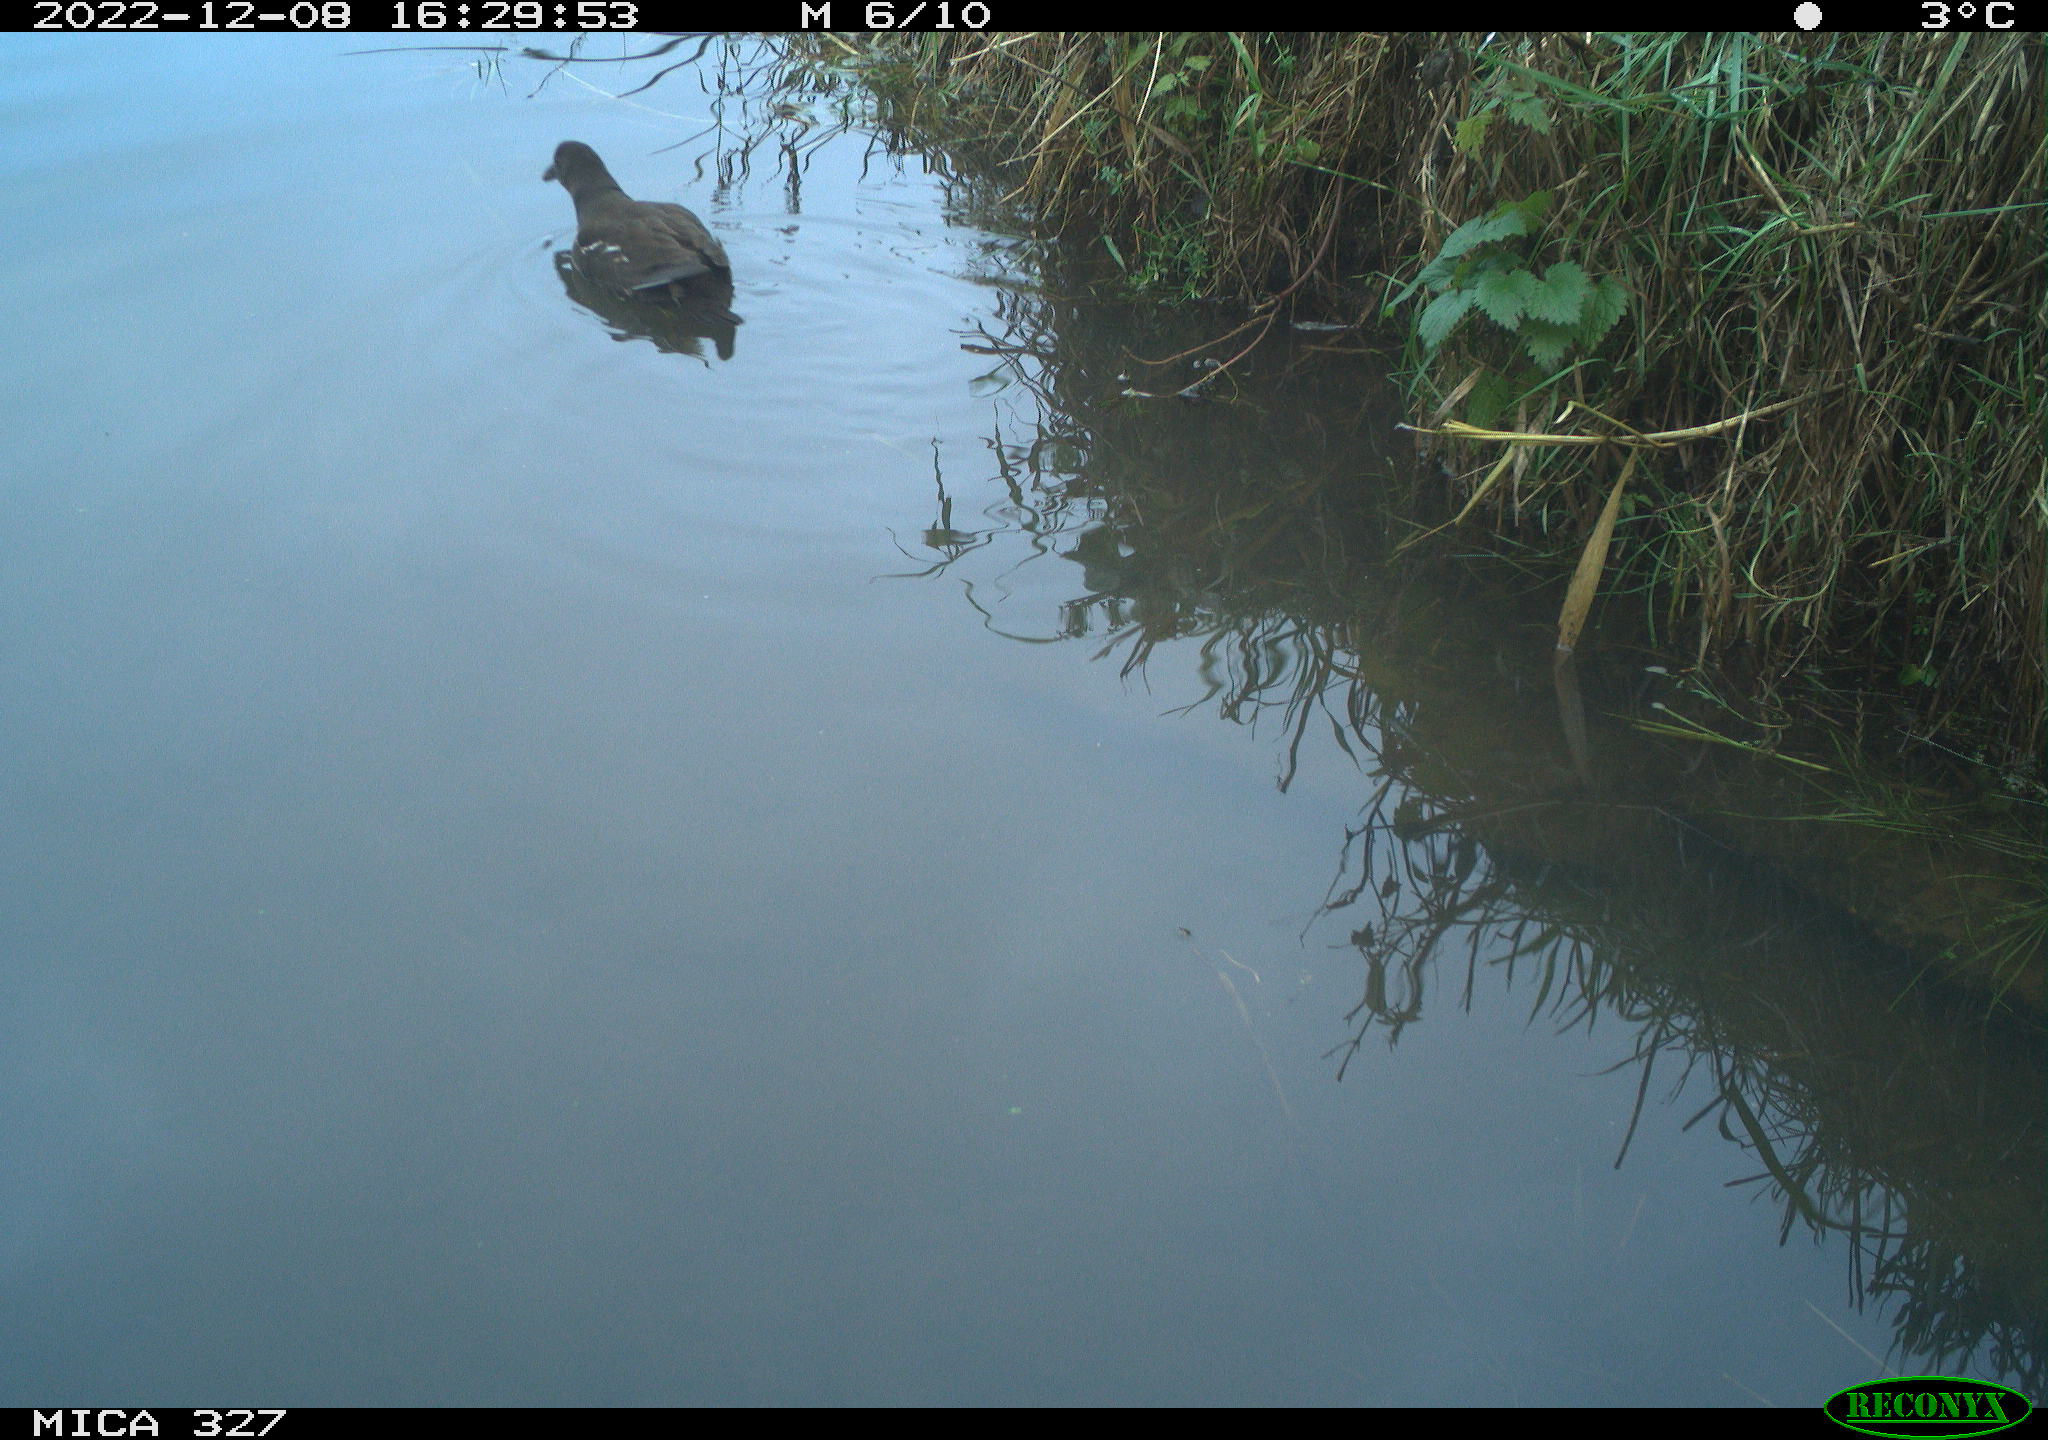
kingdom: Animalia
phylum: Chordata
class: Aves
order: Gruiformes
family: Rallidae
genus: Gallinula
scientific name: Gallinula chloropus
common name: Common moorhen
